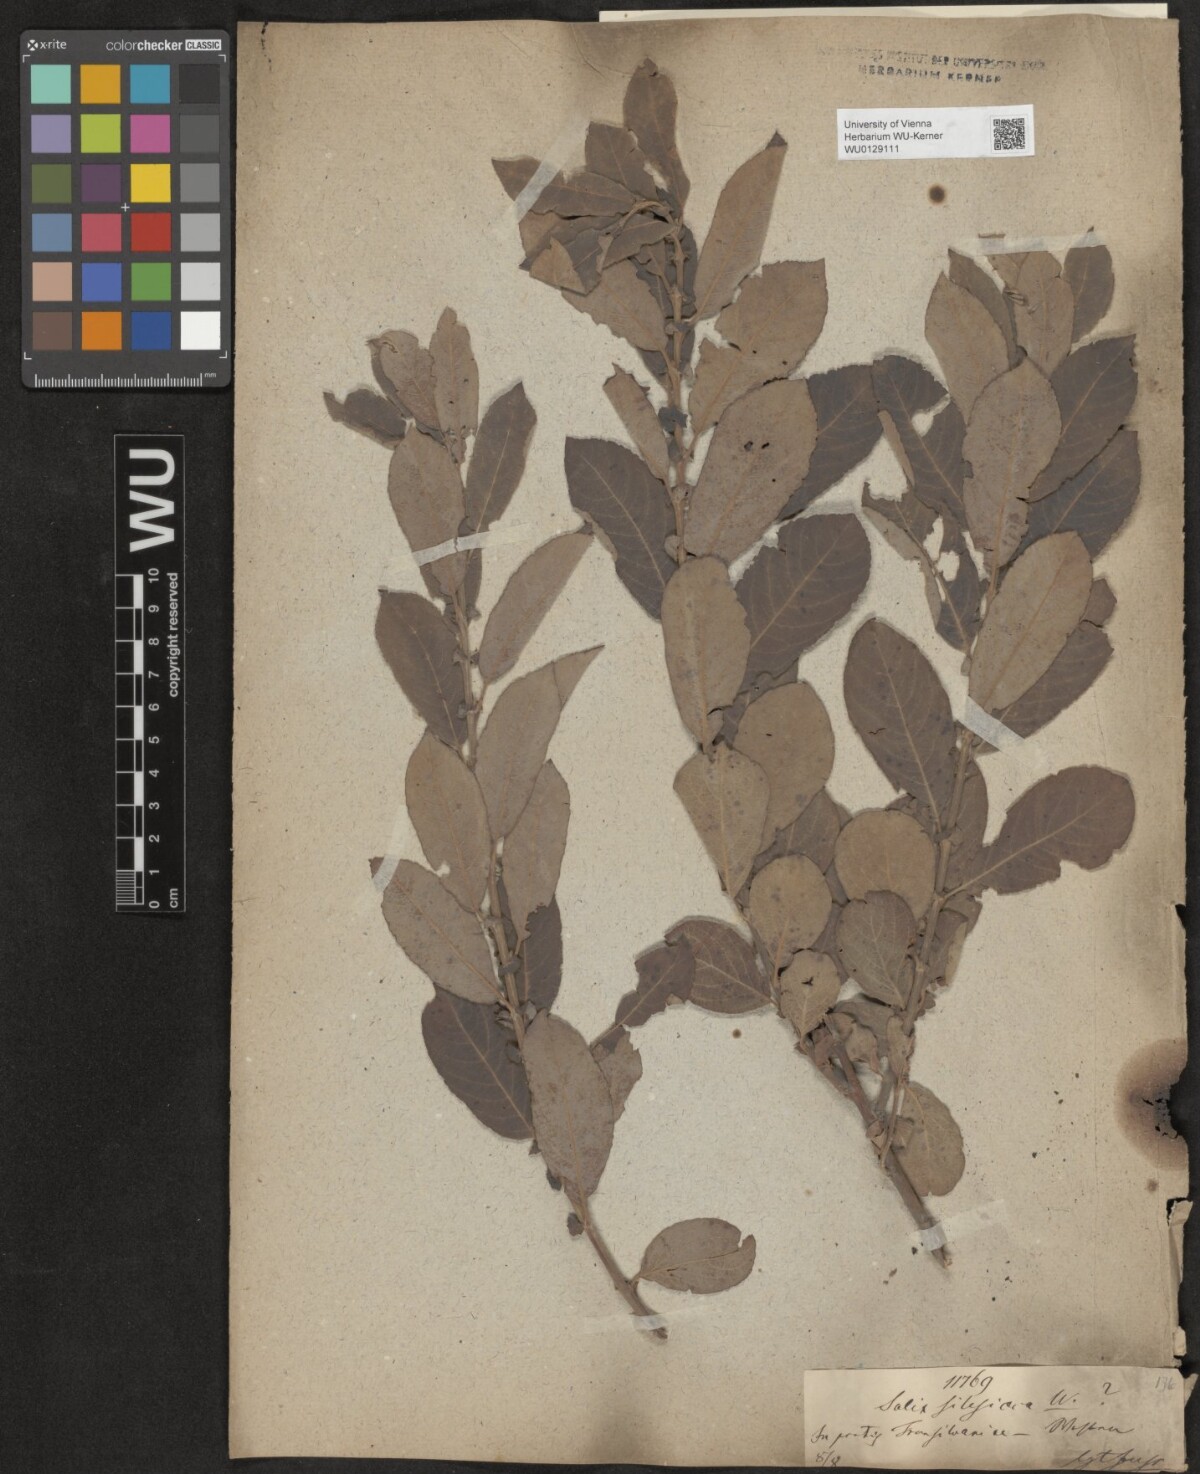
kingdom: Plantae
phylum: Tracheophyta
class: Magnoliopsida
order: Malpighiales
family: Salicaceae
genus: Salix
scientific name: Salix cinerea
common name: Common sallow
